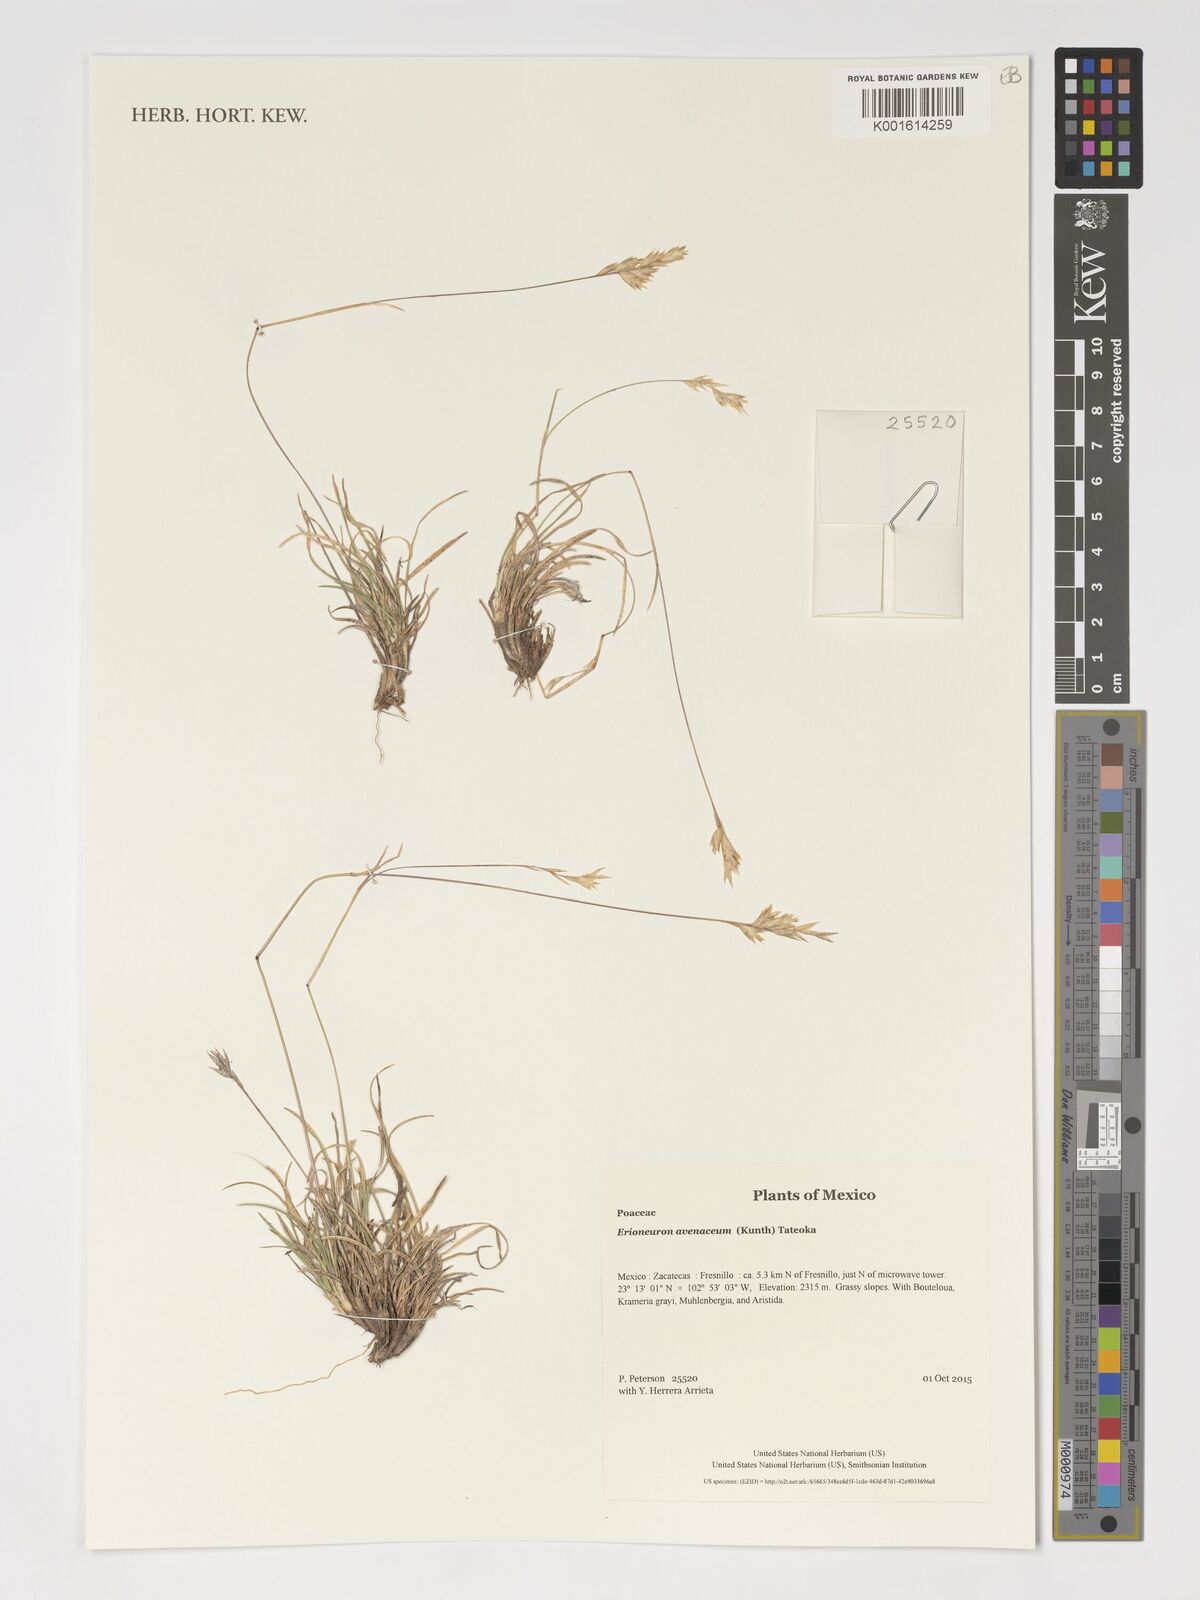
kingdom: Plantae
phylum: Tracheophyta
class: Liliopsida
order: Poales
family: Poaceae
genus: Erioneuron
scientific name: Erioneuron avenaceum
